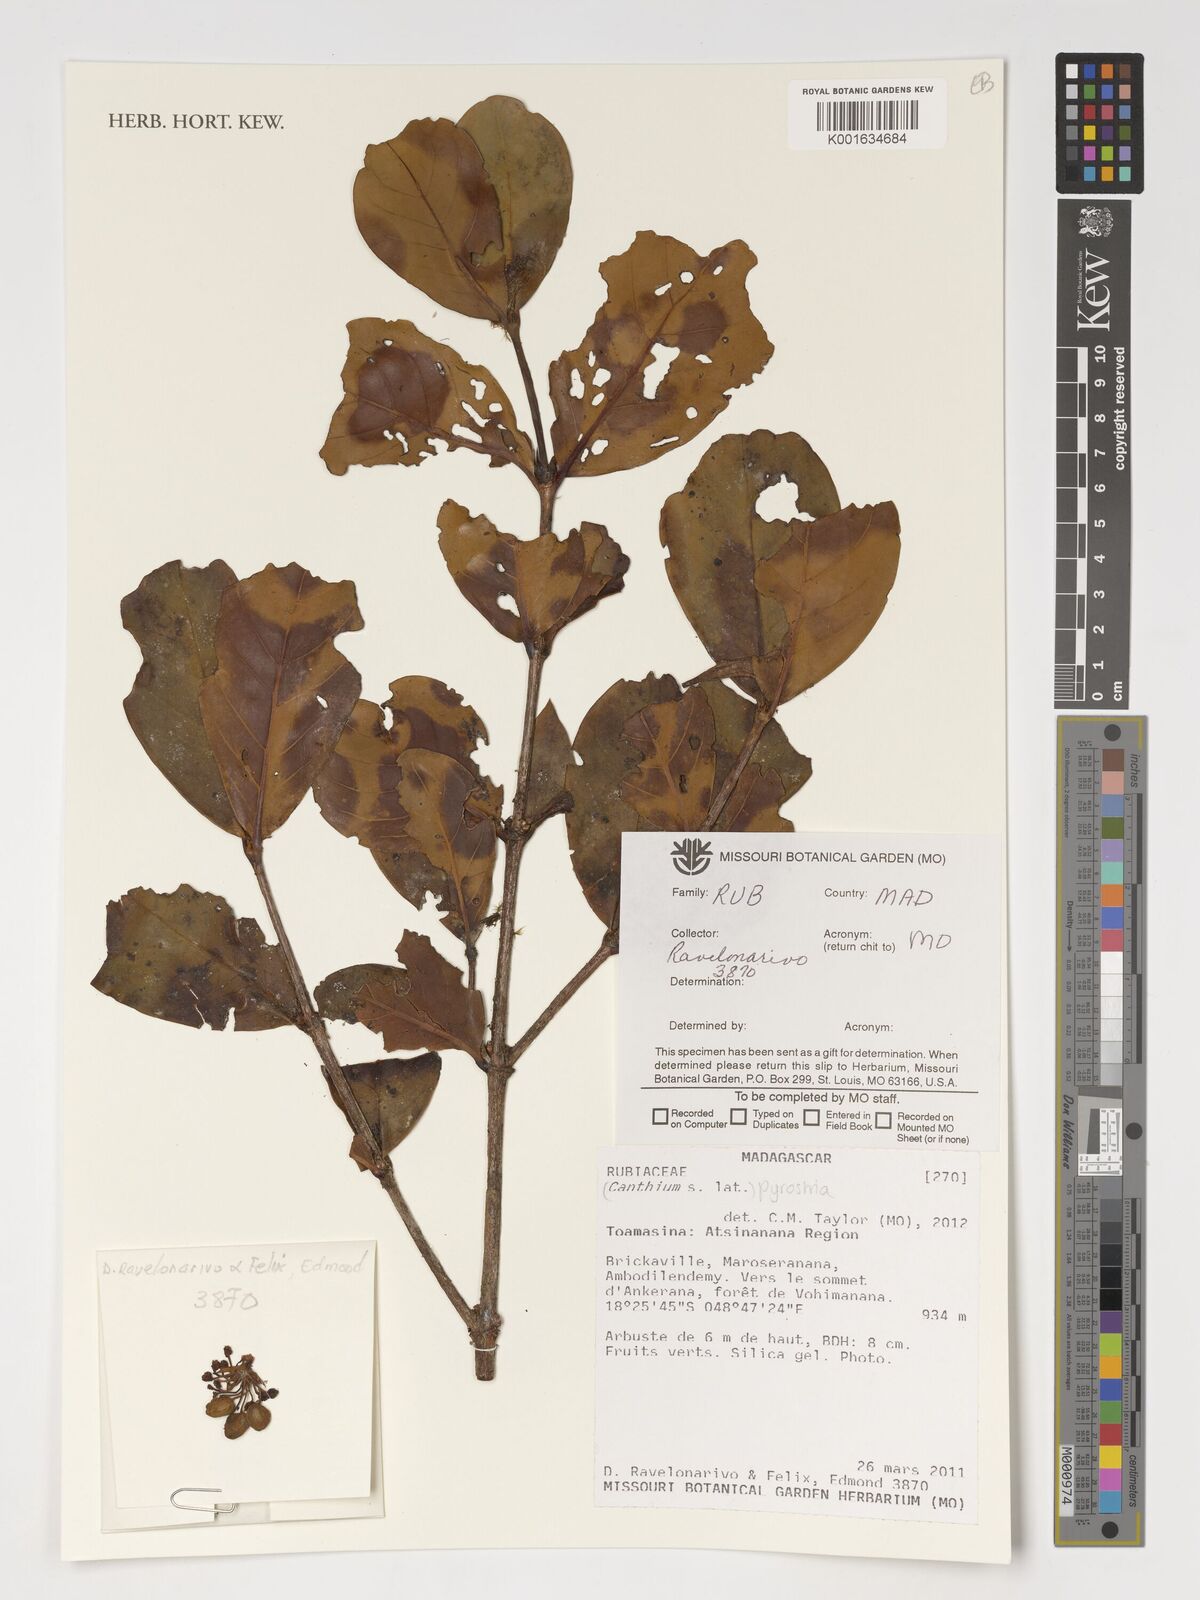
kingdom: Plantae
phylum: Tracheophyta
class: Magnoliopsida
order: Gentianales
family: Rubiaceae
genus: Pyrostria
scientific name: Pyrostria
